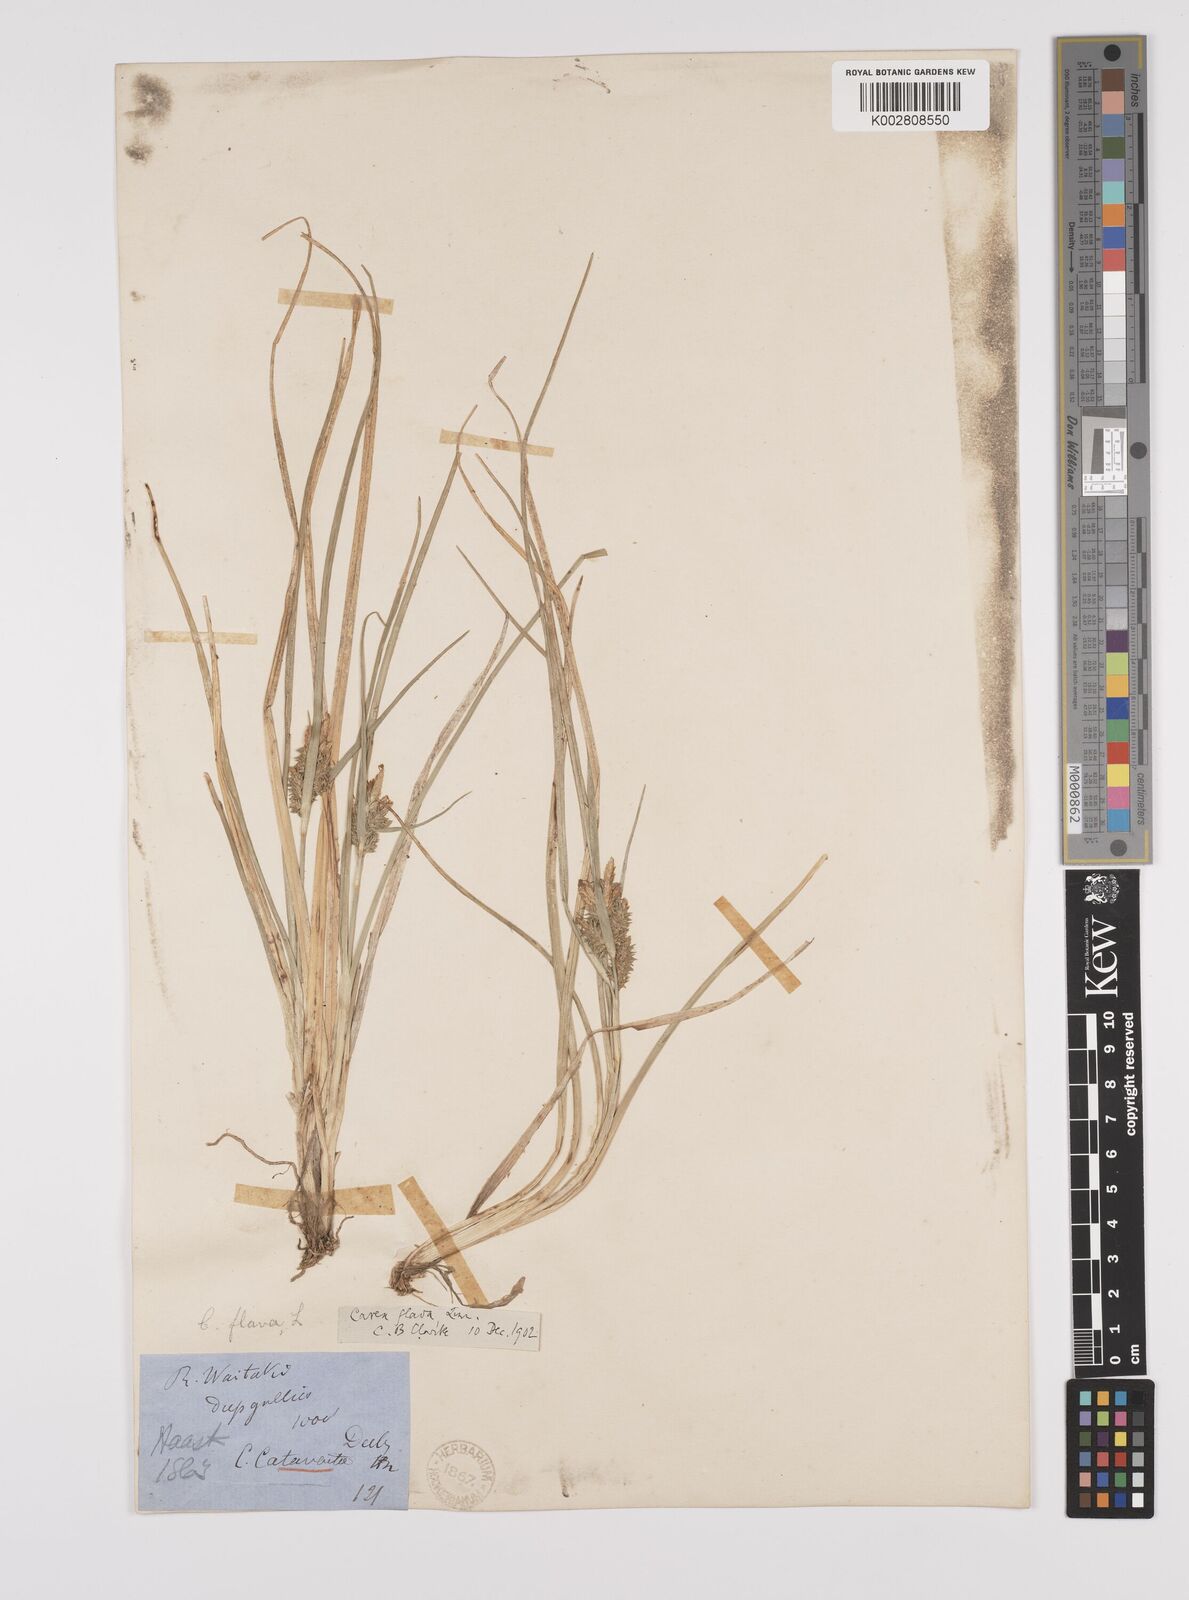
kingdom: Plantae
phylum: Tracheophyta
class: Liliopsida
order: Poales
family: Cyperaceae
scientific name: Cyperaceae
